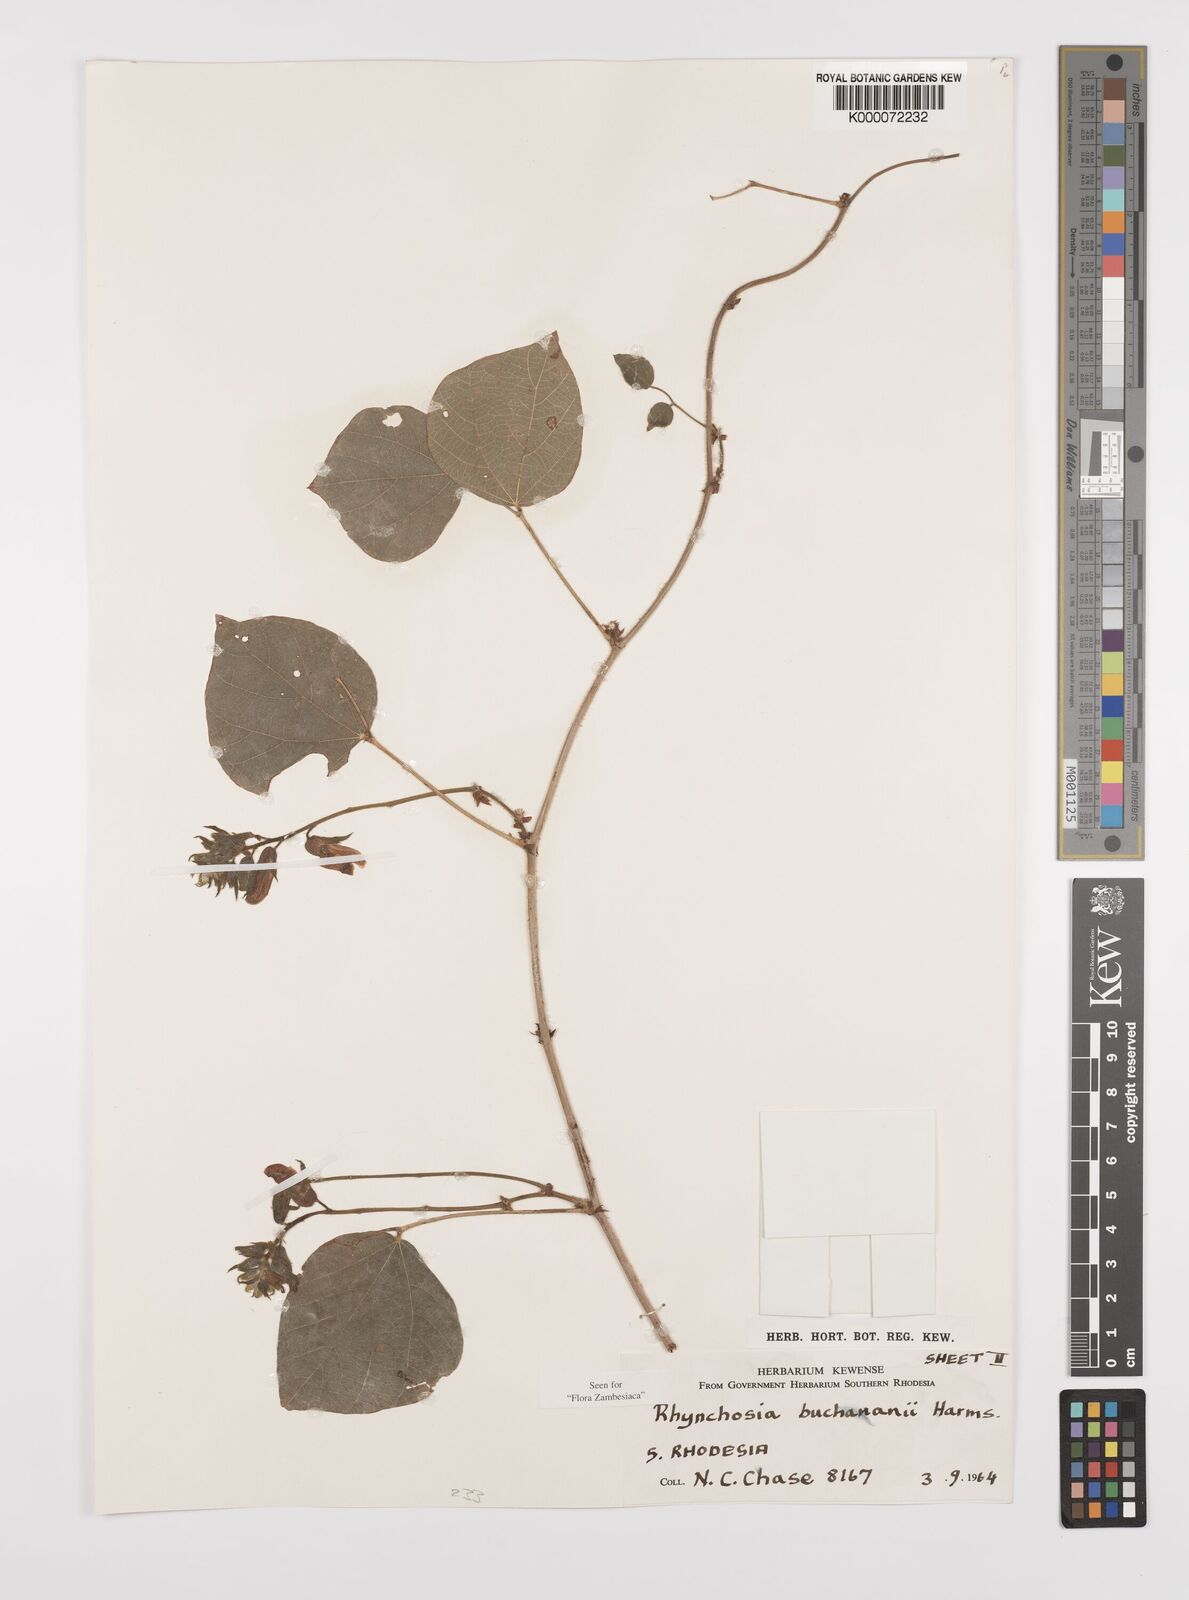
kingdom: Plantae
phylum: Tracheophyta
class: Magnoliopsida
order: Fabales
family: Fabaceae
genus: Rhynchosia
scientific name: Rhynchosia buchananii
